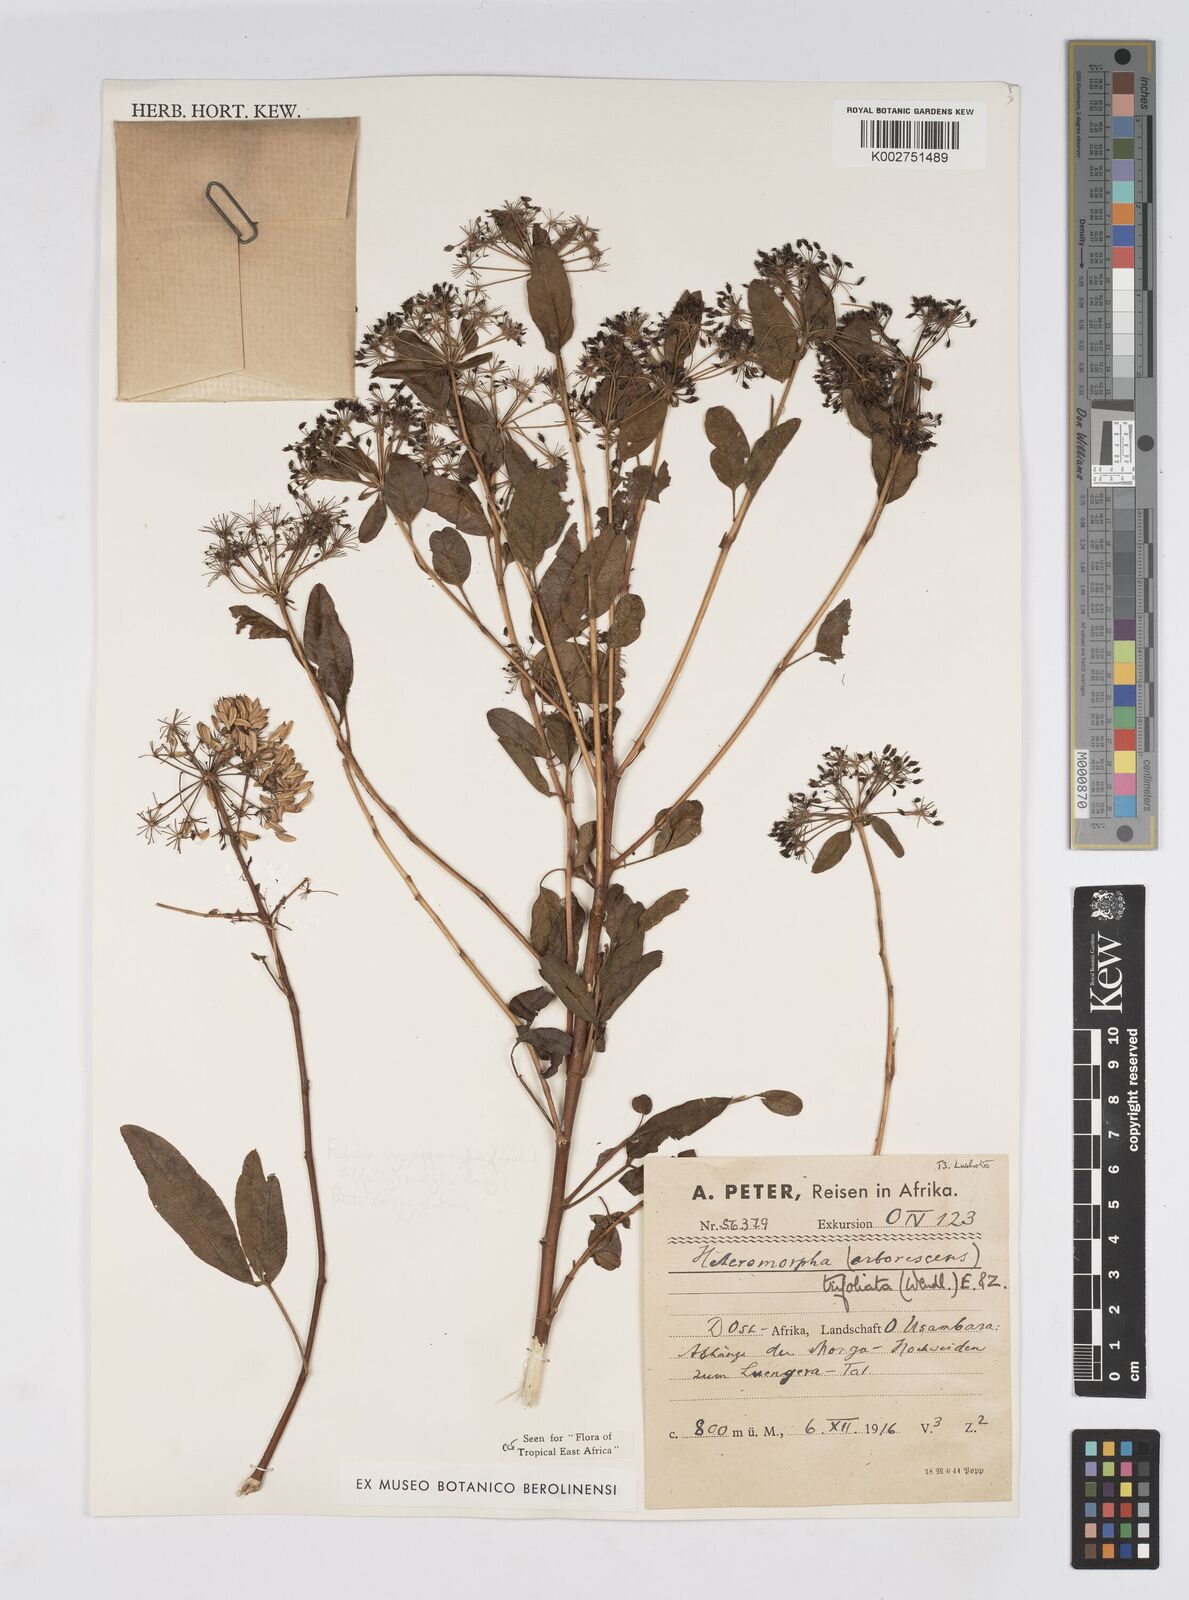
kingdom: Plantae
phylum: Tracheophyta
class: Magnoliopsida
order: Apiales
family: Apiaceae
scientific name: Apiaceae
